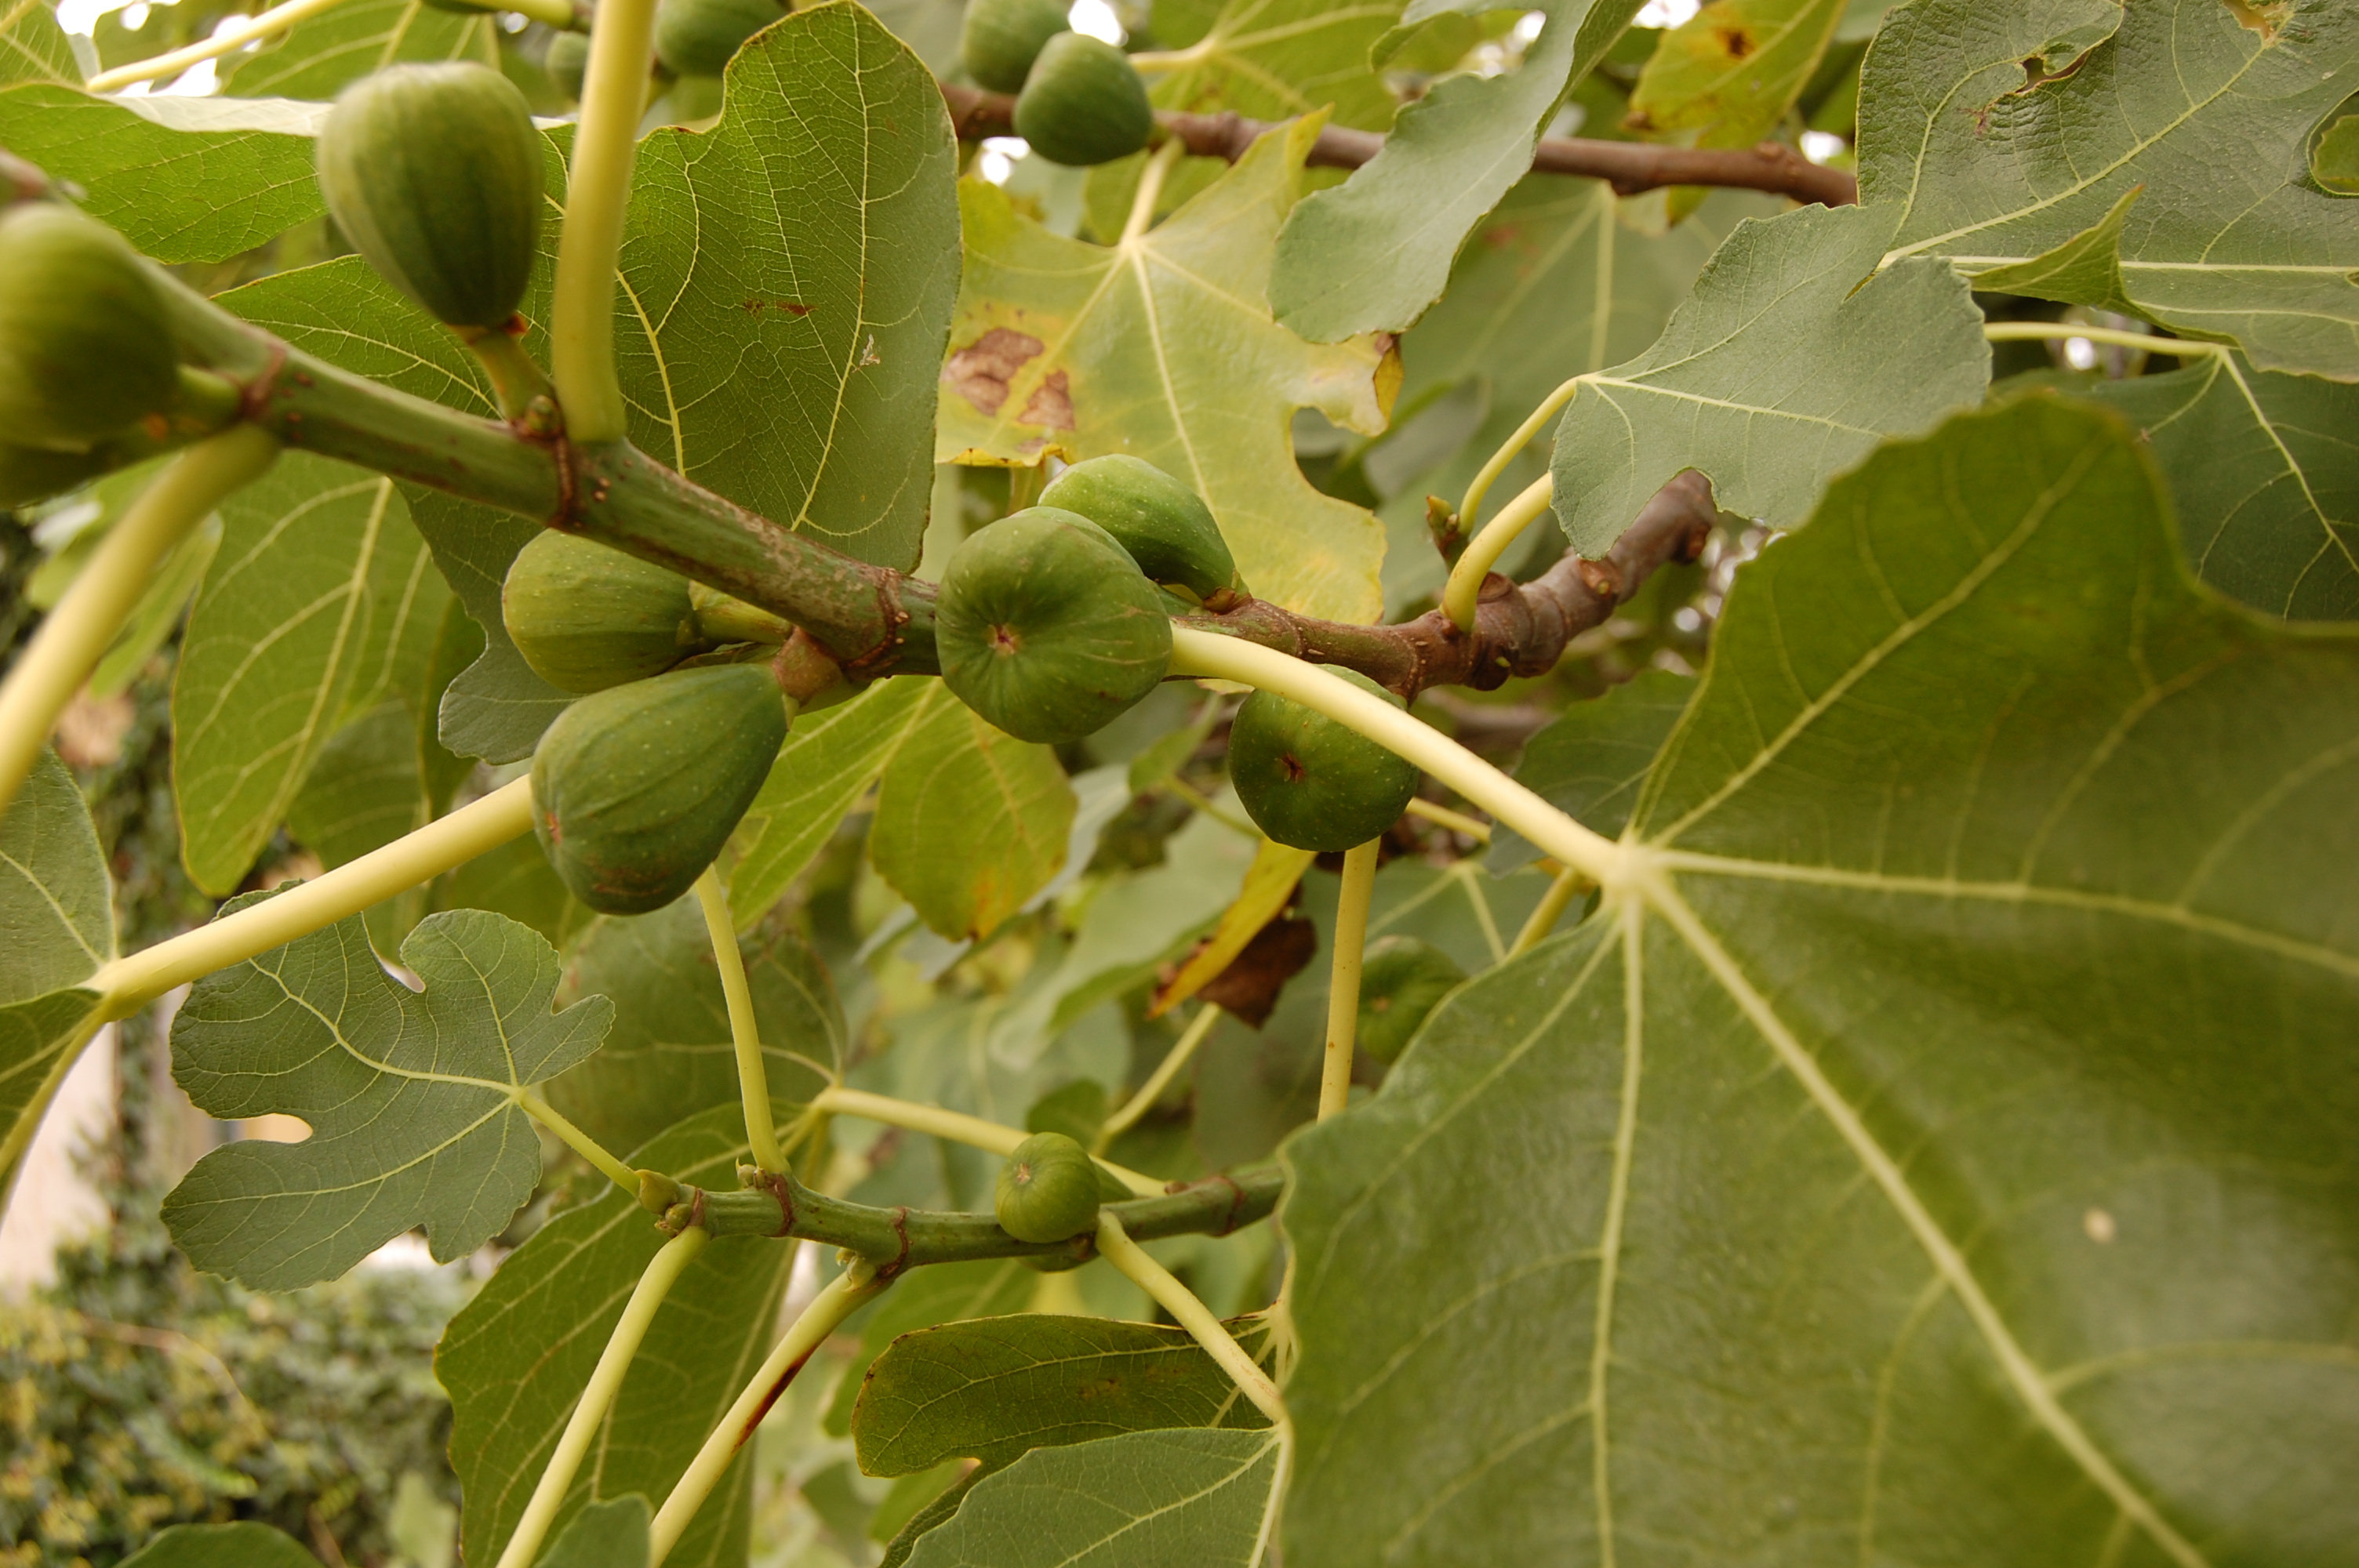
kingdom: Plantae
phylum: Tracheophyta
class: Magnoliopsida
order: Rosales
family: Moraceae
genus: Ficus
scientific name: Ficus carica
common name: Fig
